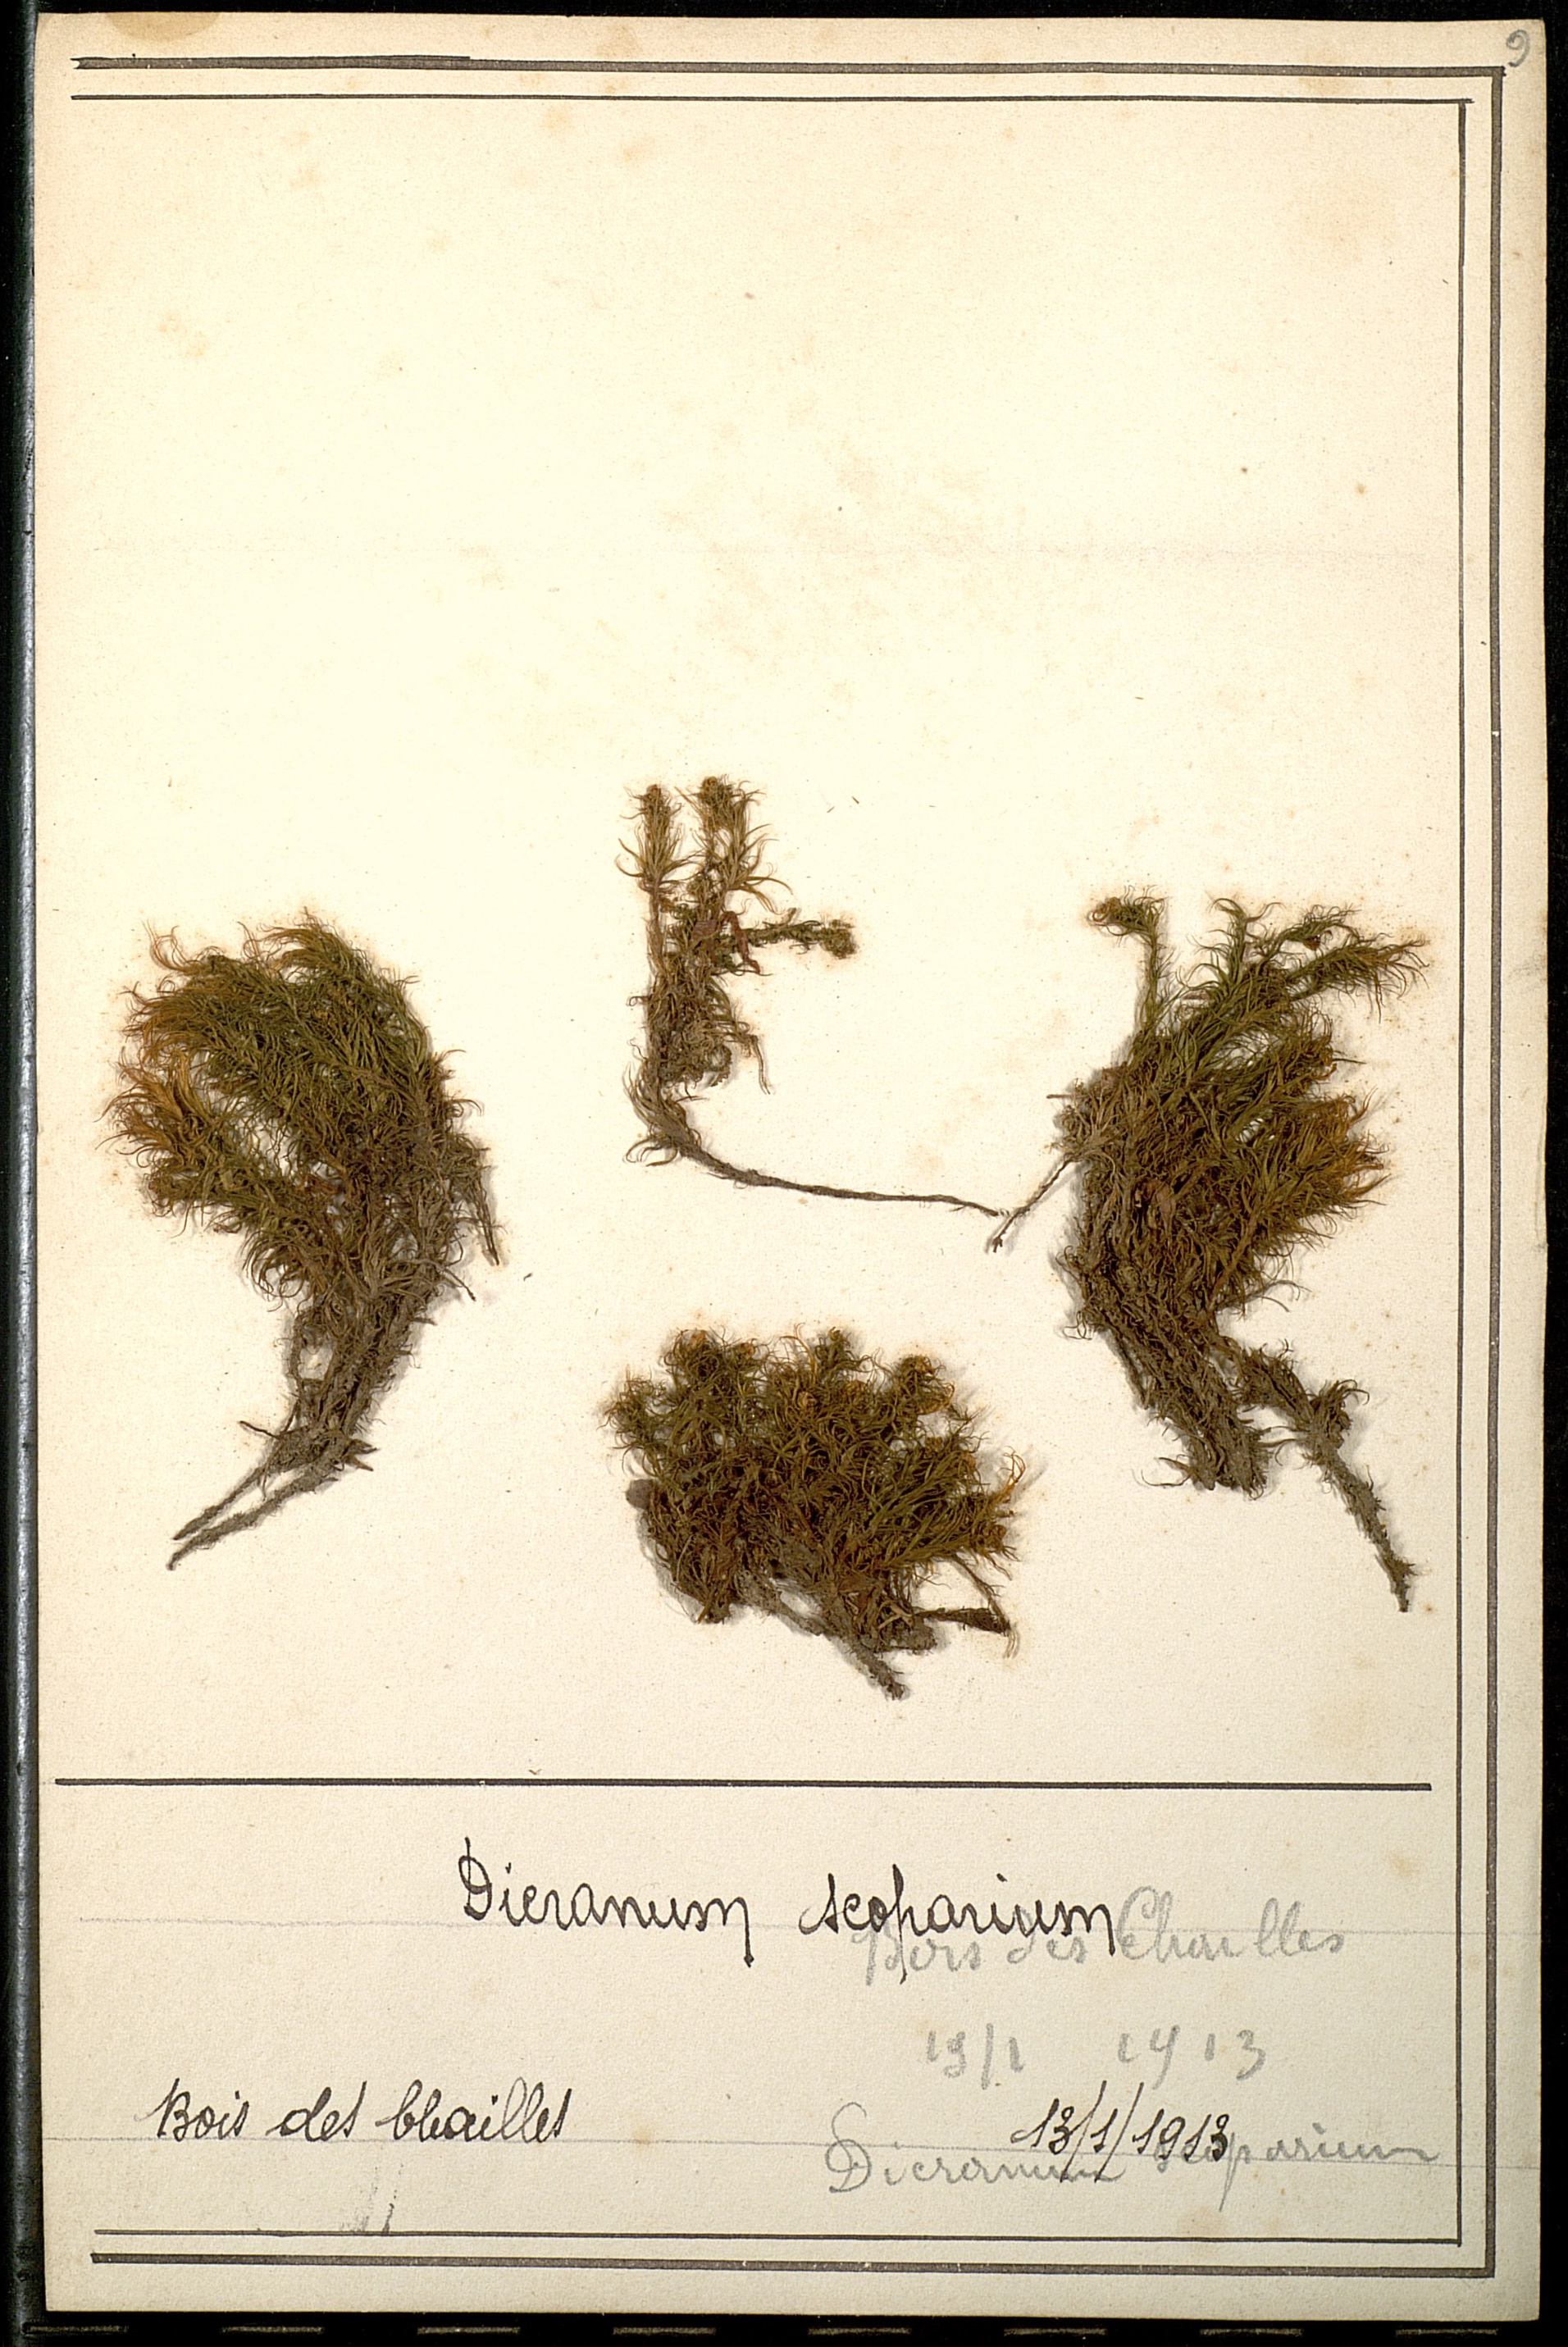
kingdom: Plantae
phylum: Bryophyta
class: Bryopsida
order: Dicranales
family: Dicranaceae
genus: Dicranum
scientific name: Dicranum scoparium
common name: Broom fork-moss
